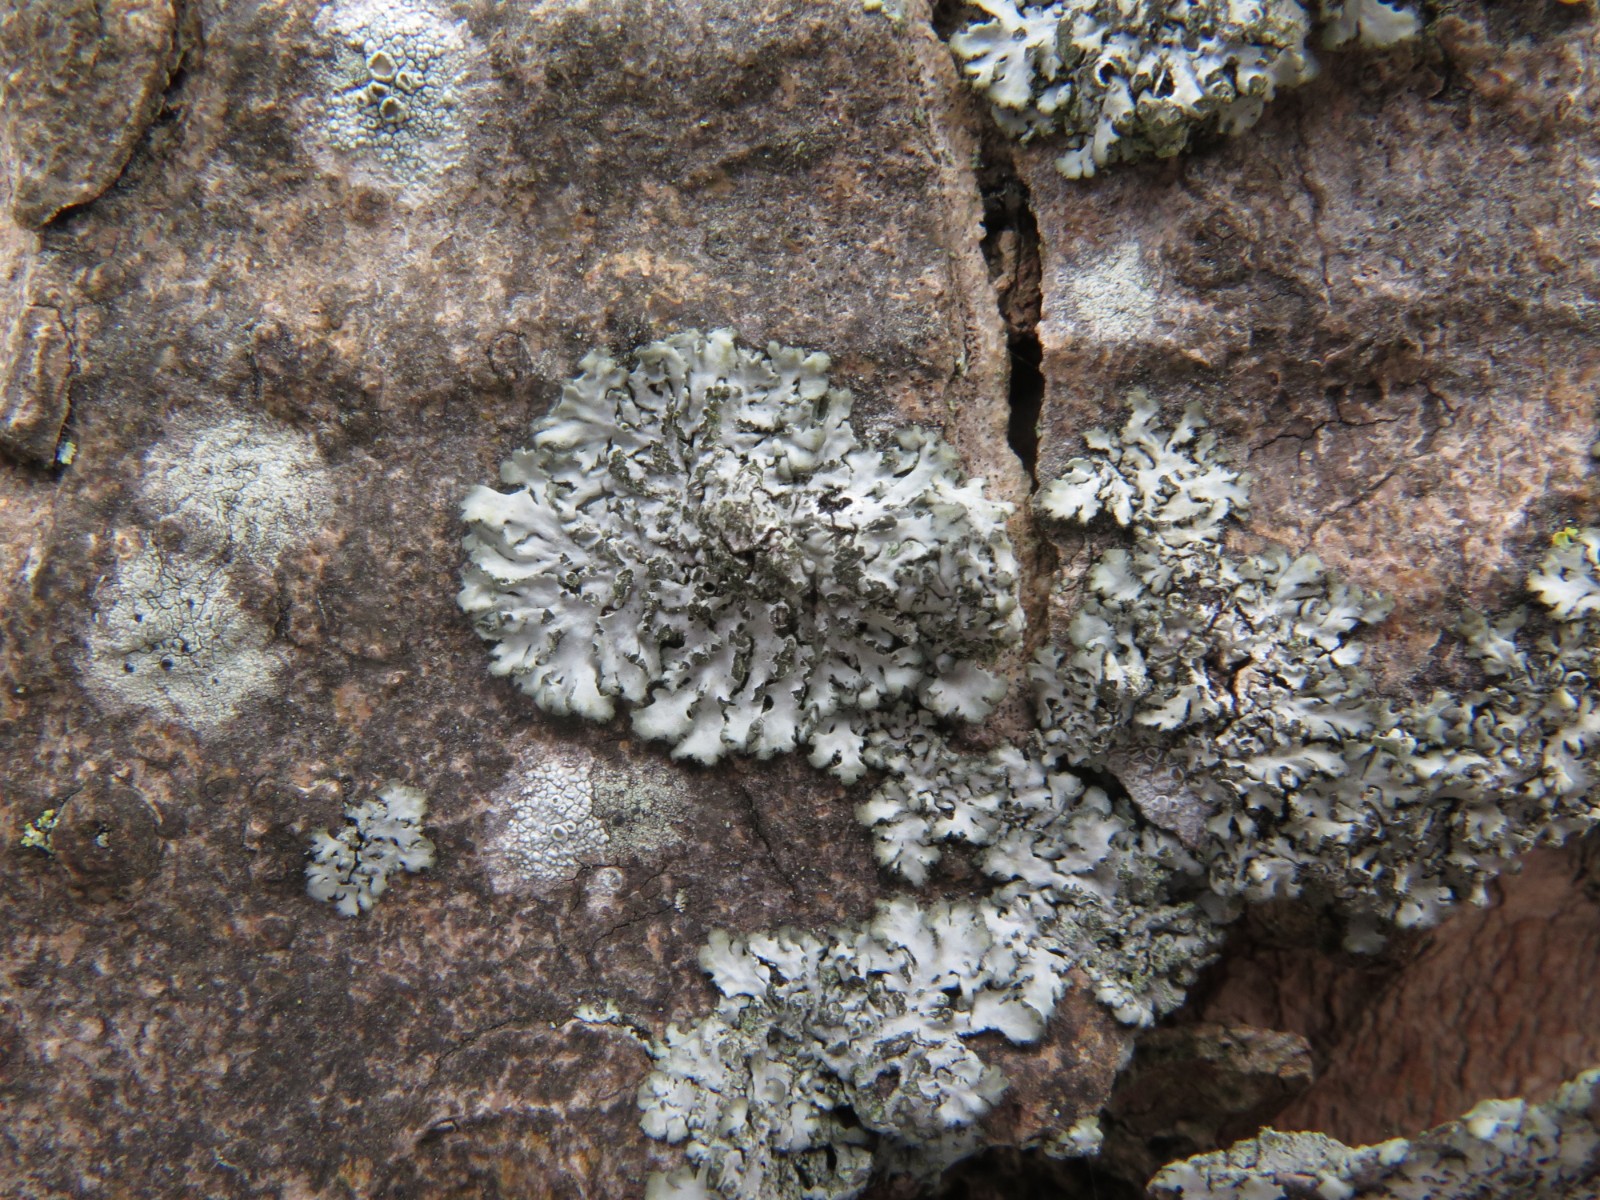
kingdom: Fungi
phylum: Ascomycota
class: Lecanoromycetes
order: Caliciales
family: Physciaceae
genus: Phaeophyscia
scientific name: Phaeophyscia orbicularis
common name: grågrøn rosetlav
